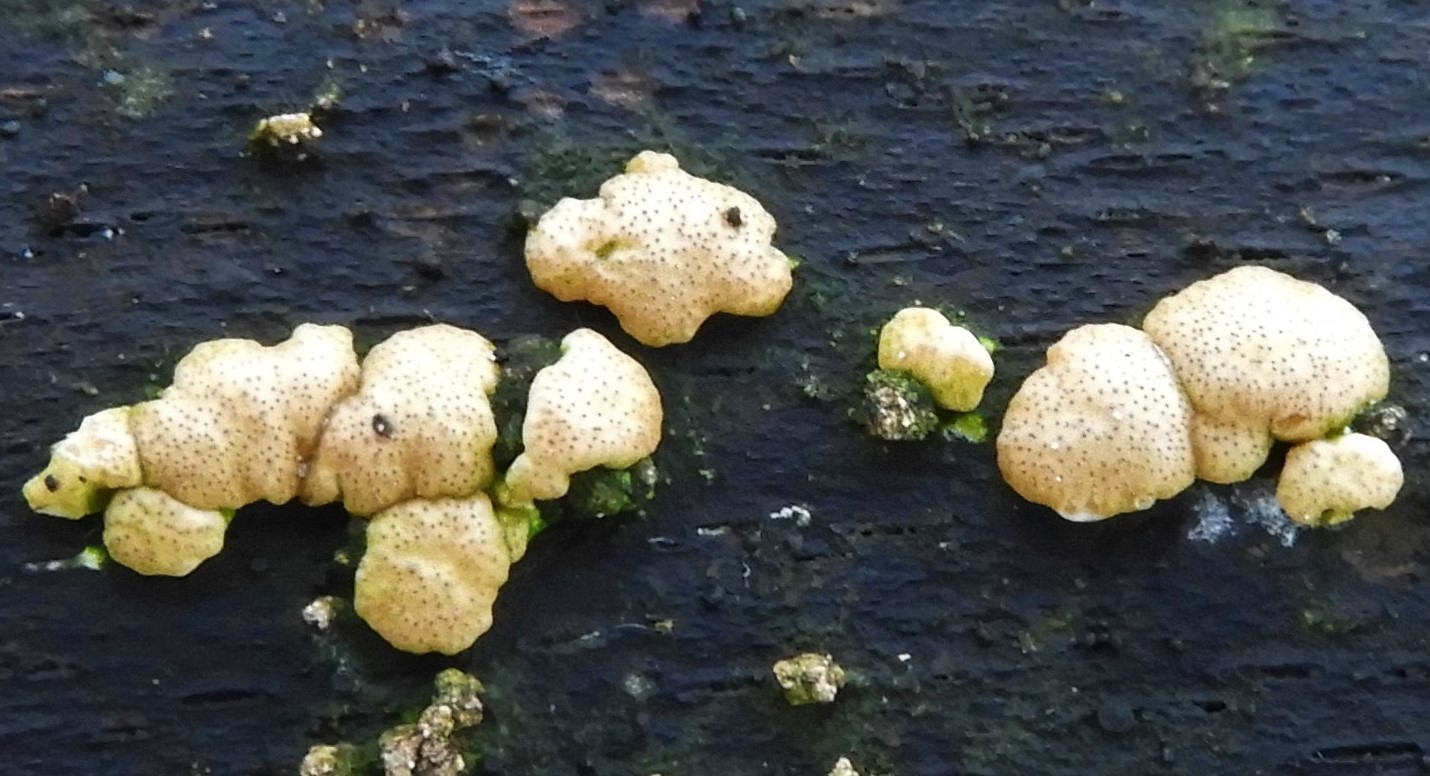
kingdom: Fungi
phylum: Ascomycota
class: Sordariomycetes
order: Hypocreales
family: Hypocreaceae
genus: Trichoderma
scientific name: Trichoderma
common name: kødkerne
